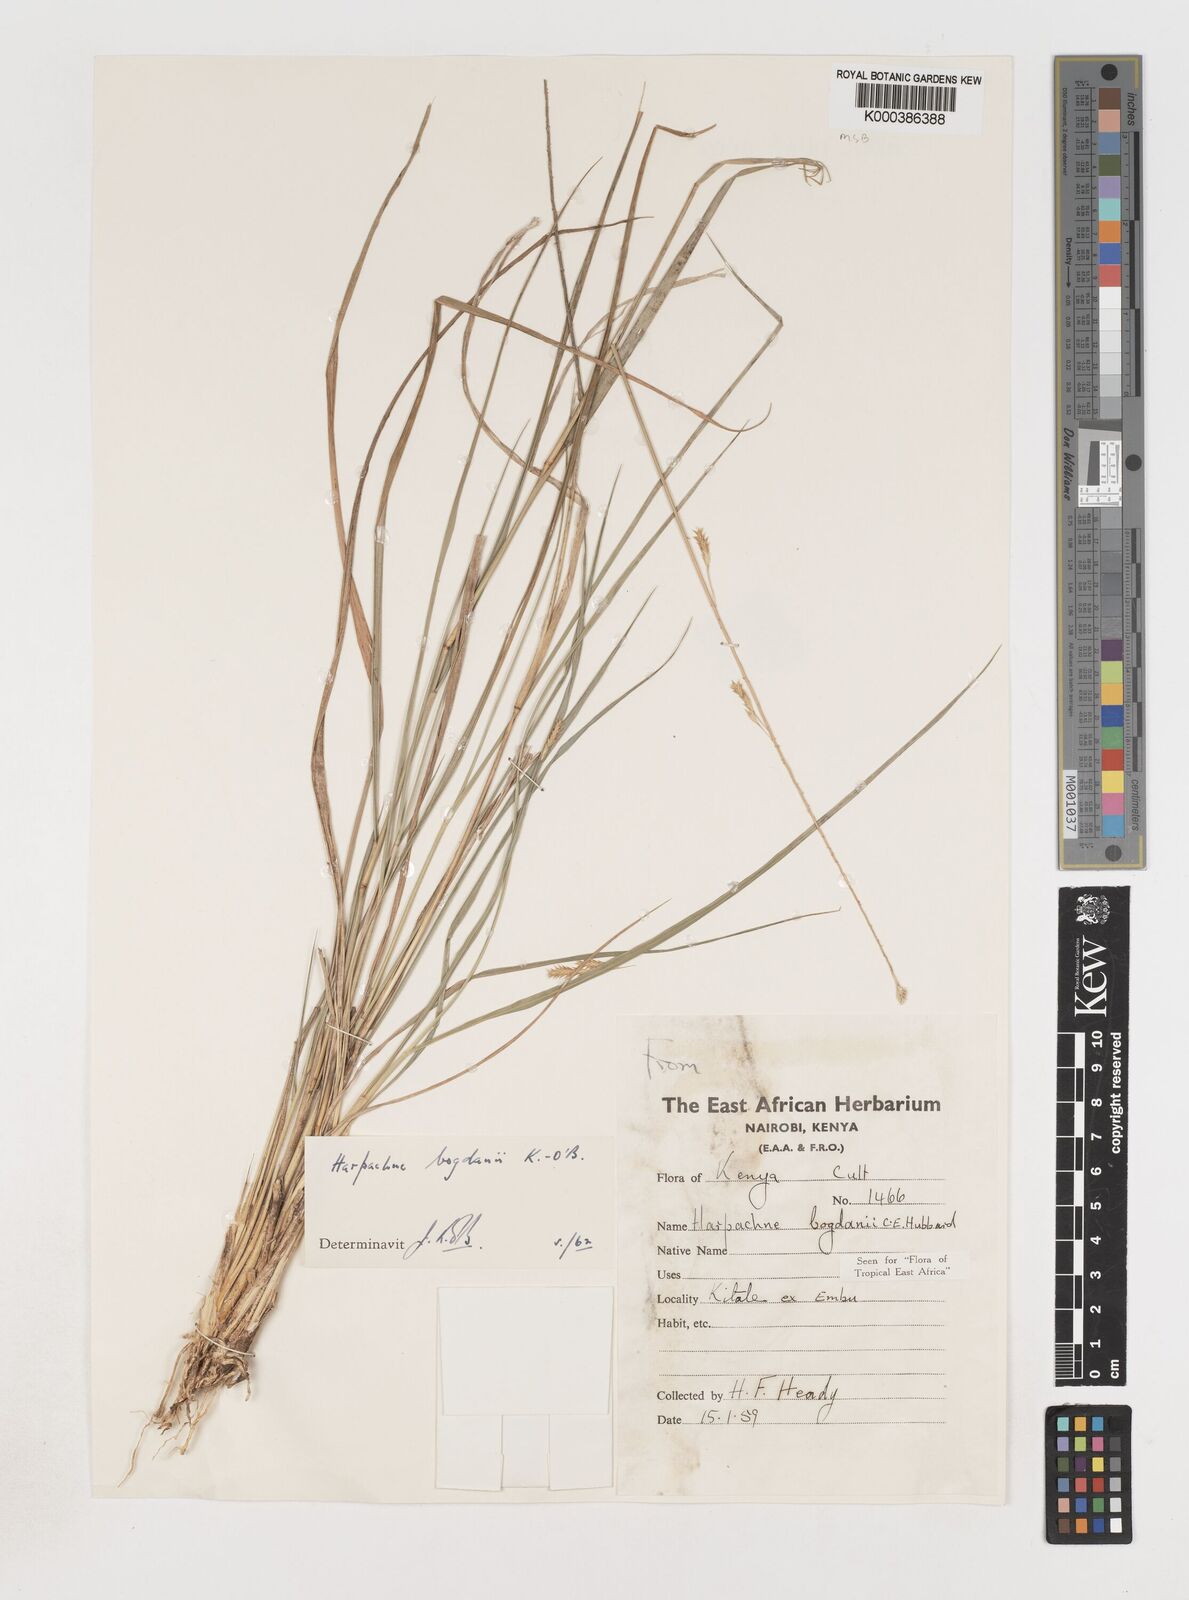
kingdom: Plantae
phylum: Tracheophyta
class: Liliopsida
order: Poales
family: Poaceae
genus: Harpachne
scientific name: Harpachne bogdanii
